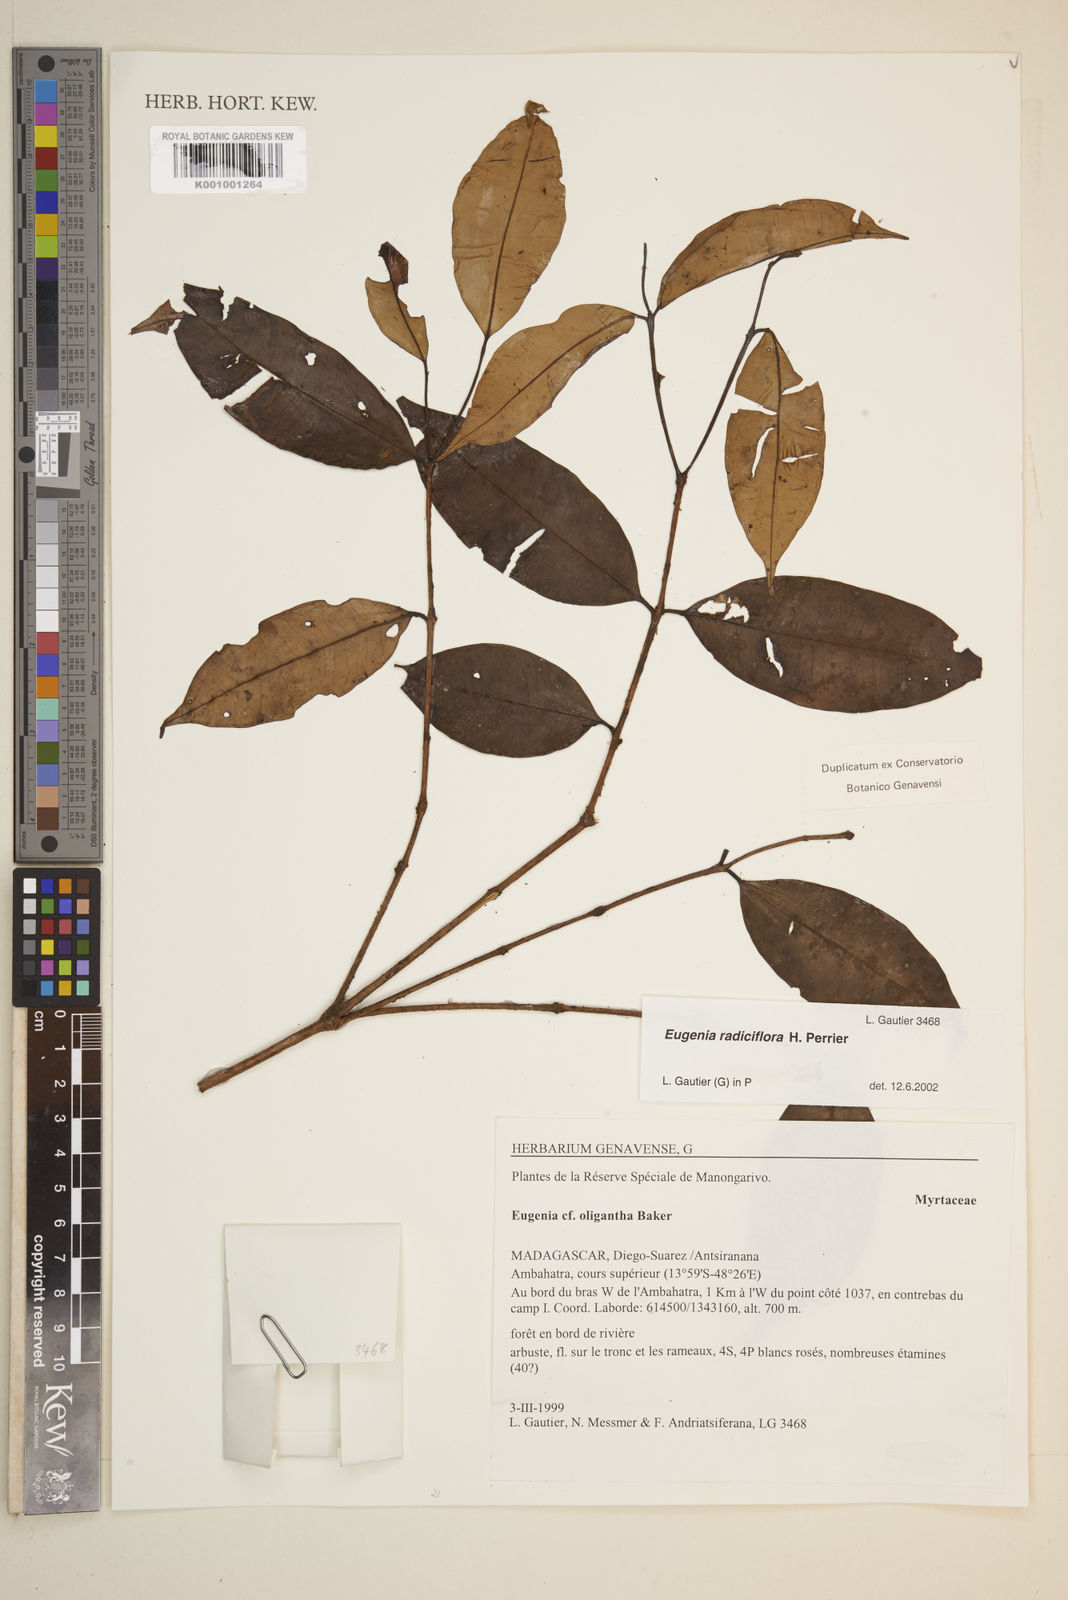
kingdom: Plantae
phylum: Tracheophyta
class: Magnoliopsida
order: Myrtales
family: Myrtaceae
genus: Eugenia
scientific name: Eugenia radiciflora
